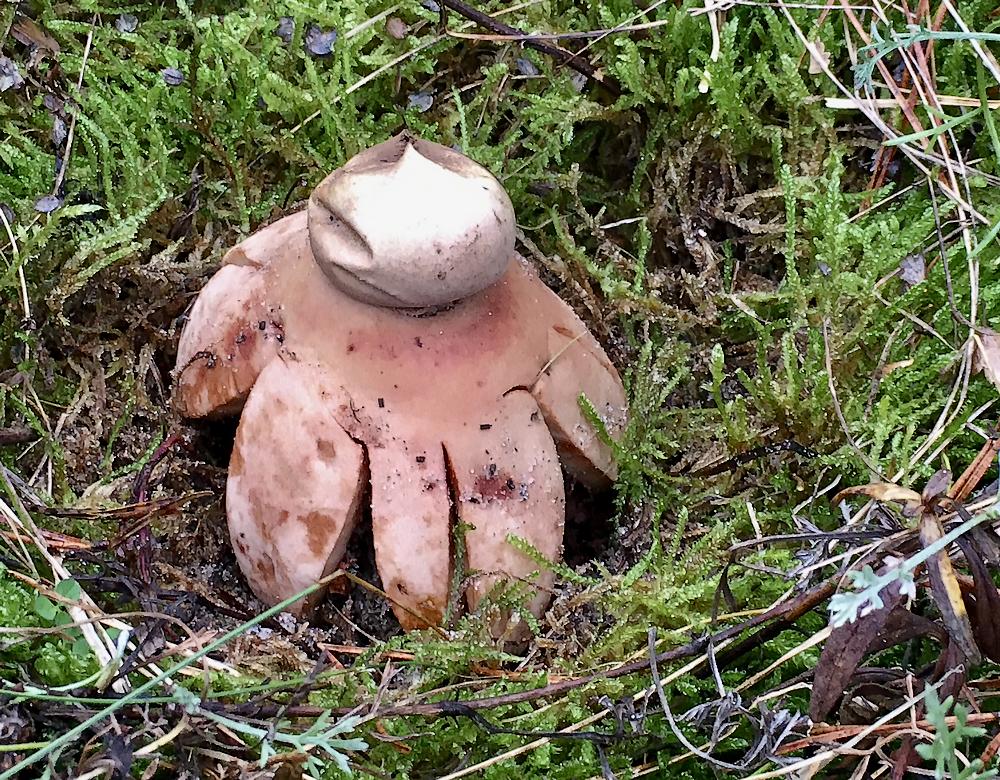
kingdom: Fungi
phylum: Basidiomycota
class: Agaricomycetes
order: Geastrales
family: Geastraceae
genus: Geastrum
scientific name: Geastrum rufescens
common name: kødfarvet stjernebold
